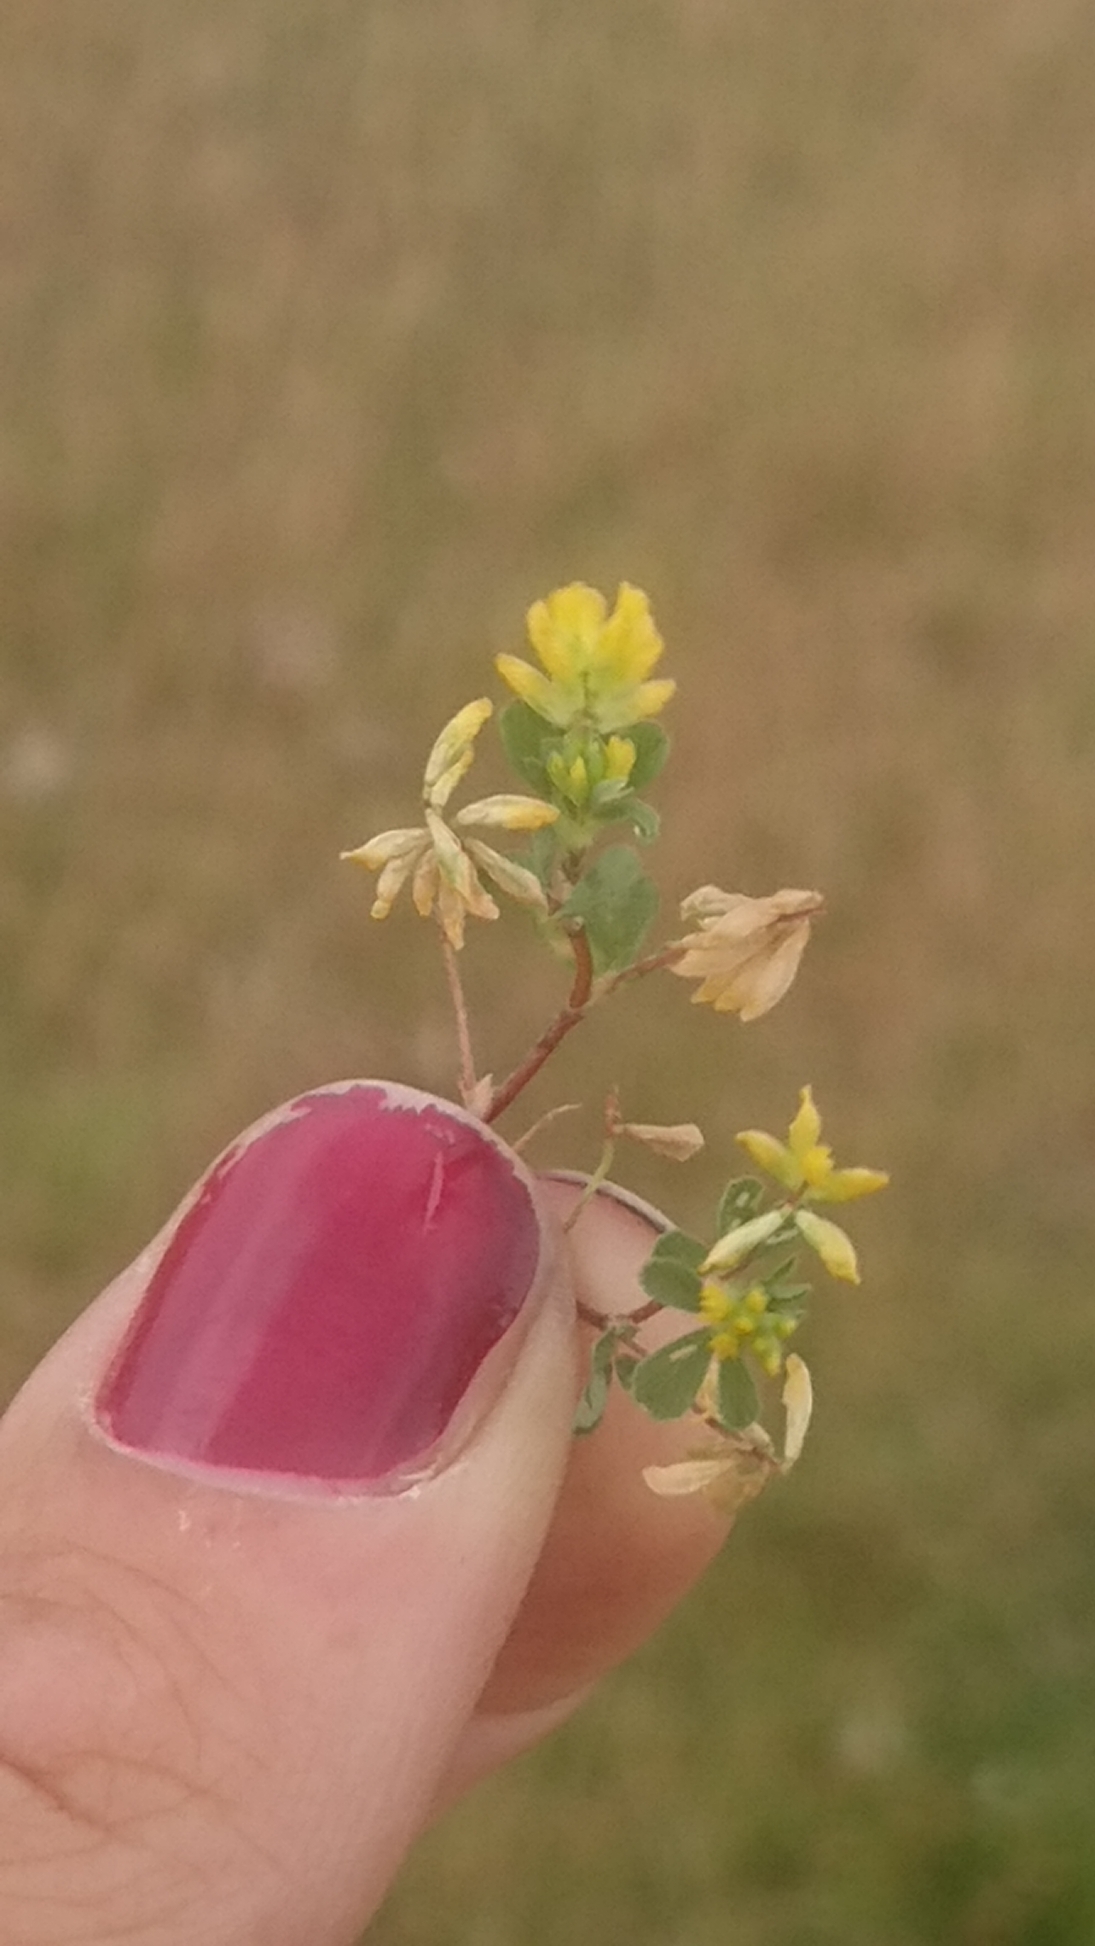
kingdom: Plantae
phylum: Tracheophyta
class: Magnoliopsida
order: Fabales
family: Fabaceae
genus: Trifolium
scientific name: Trifolium dubium
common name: Fin kløver
